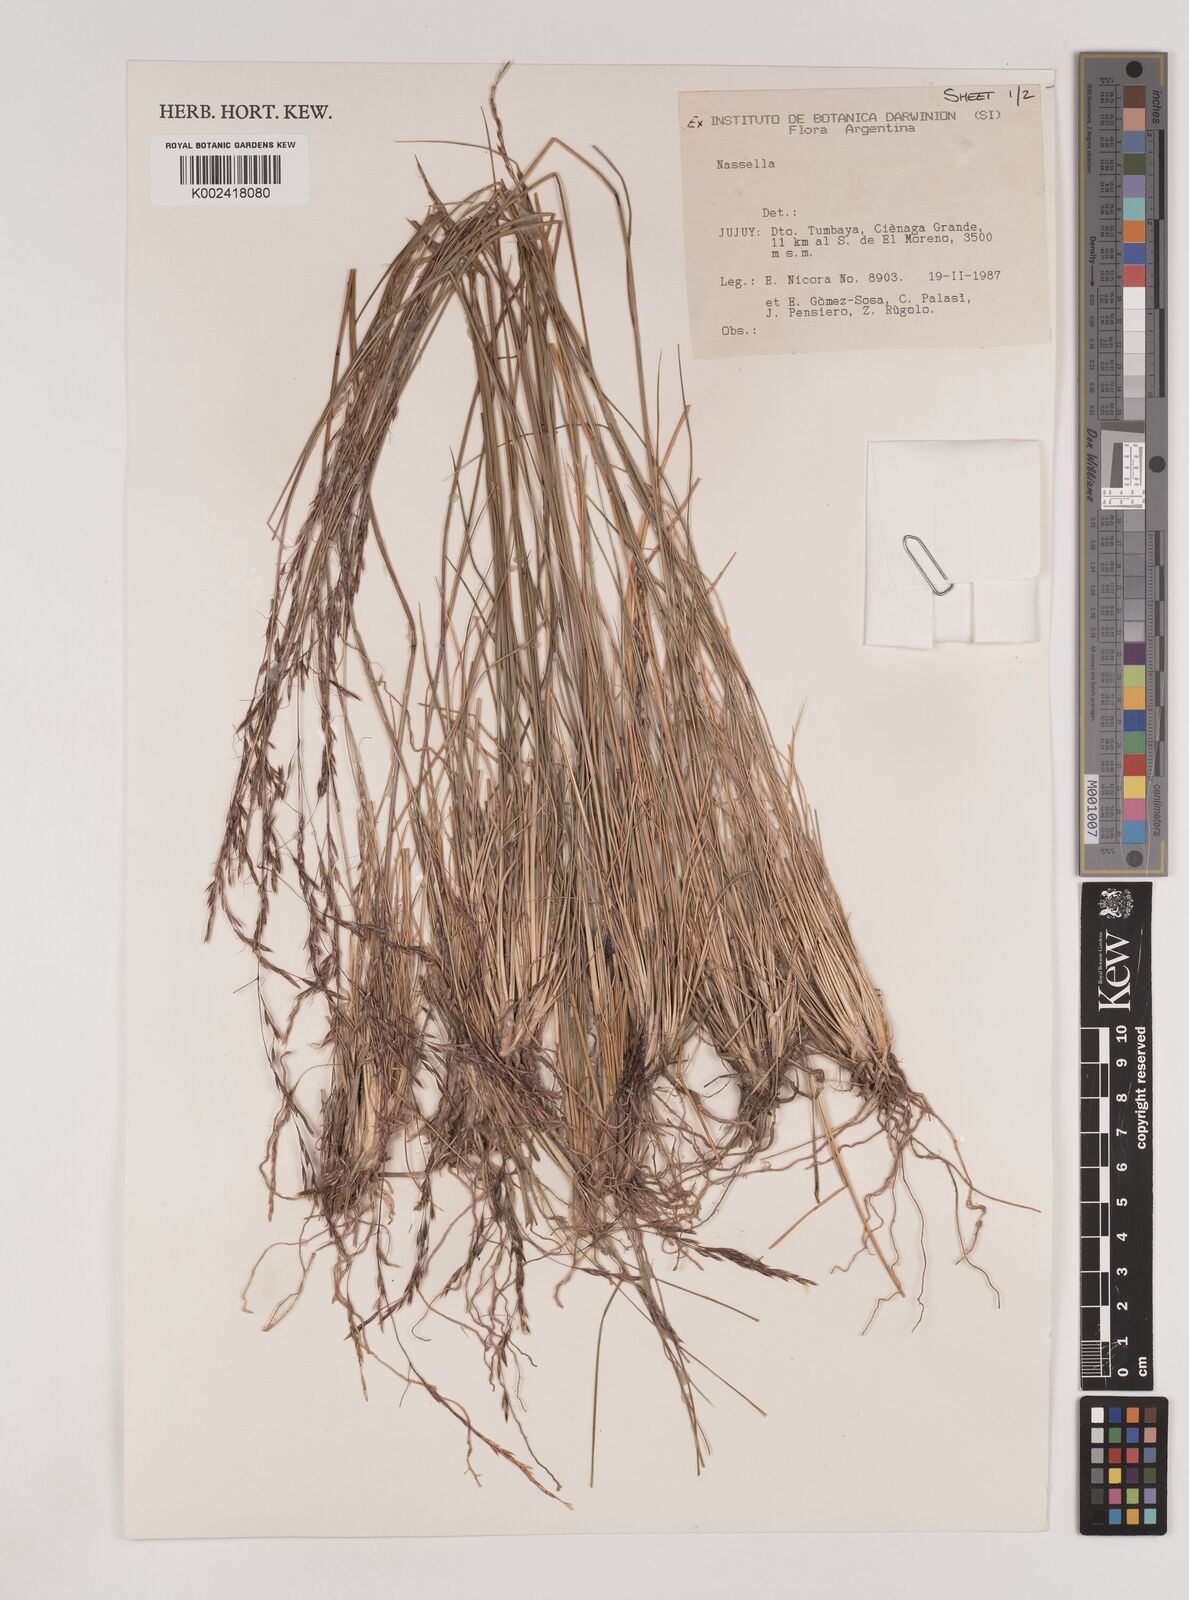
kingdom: Plantae
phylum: Tracheophyta
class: Liliopsida
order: Poales
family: Poaceae
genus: Nassella
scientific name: Nassella
